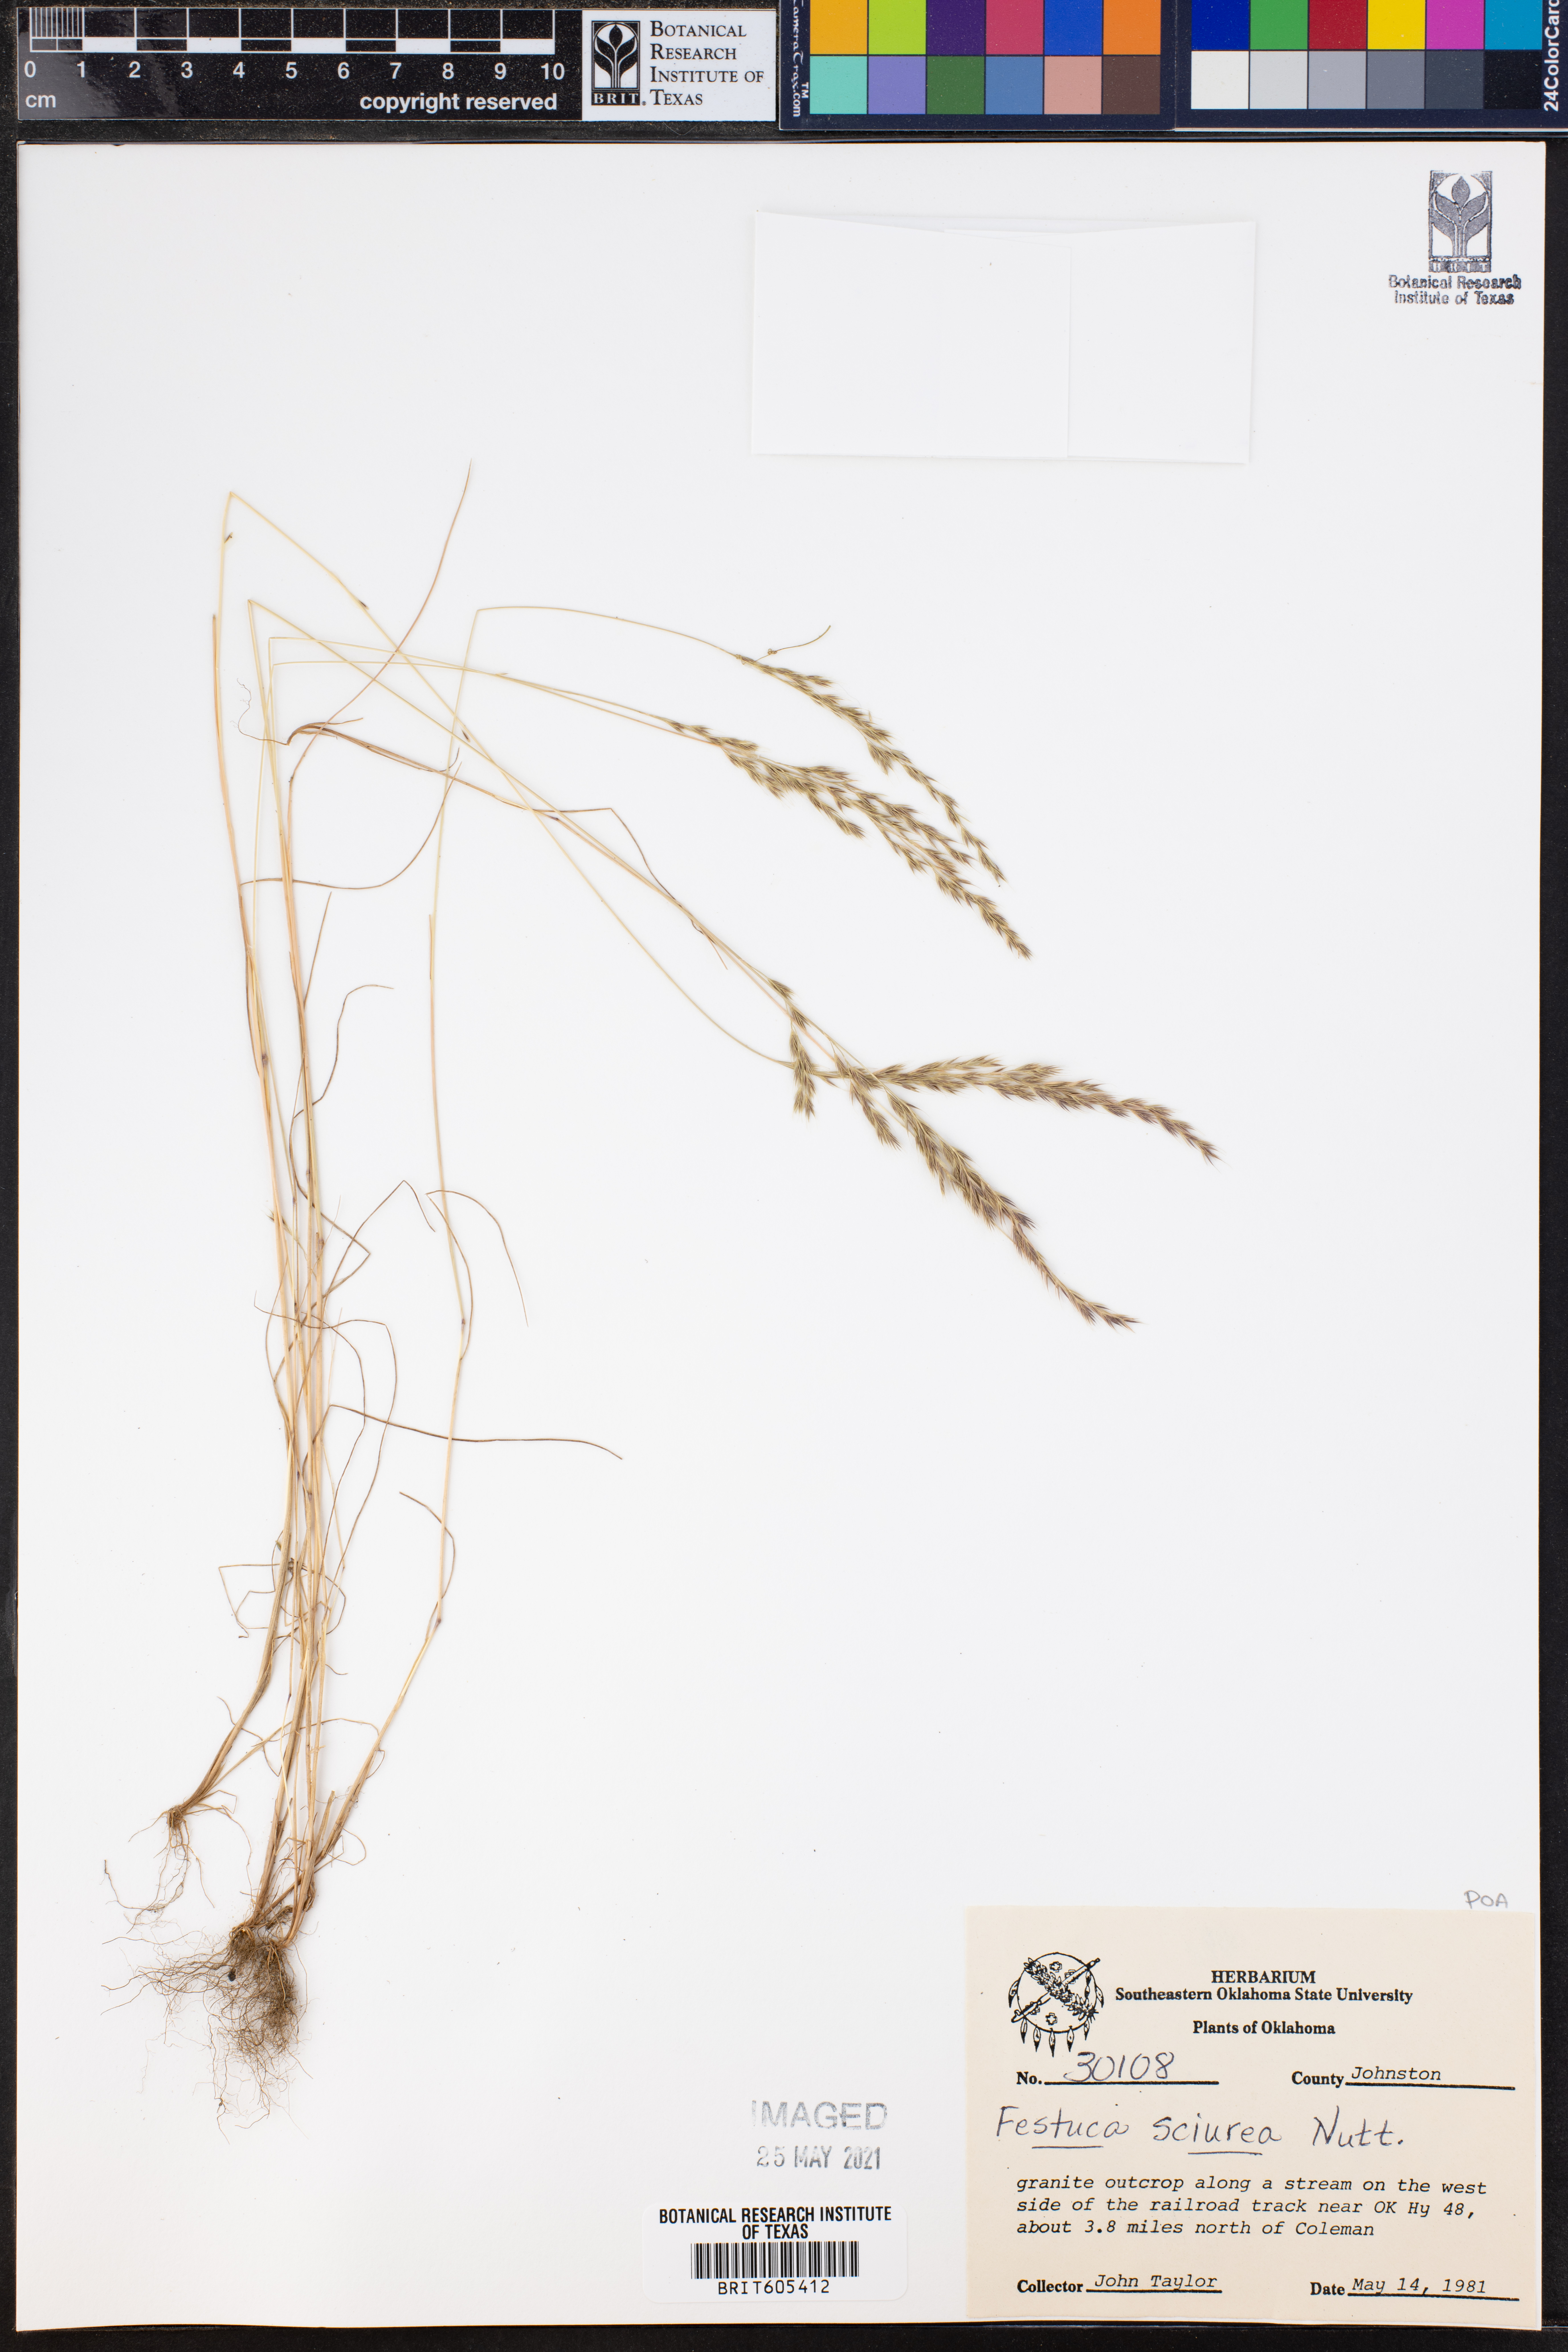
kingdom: Plantae
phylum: Tracheophyta
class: Liliopsida
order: Poales
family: Poaceae
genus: Festuca
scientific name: Festuca sciurea
